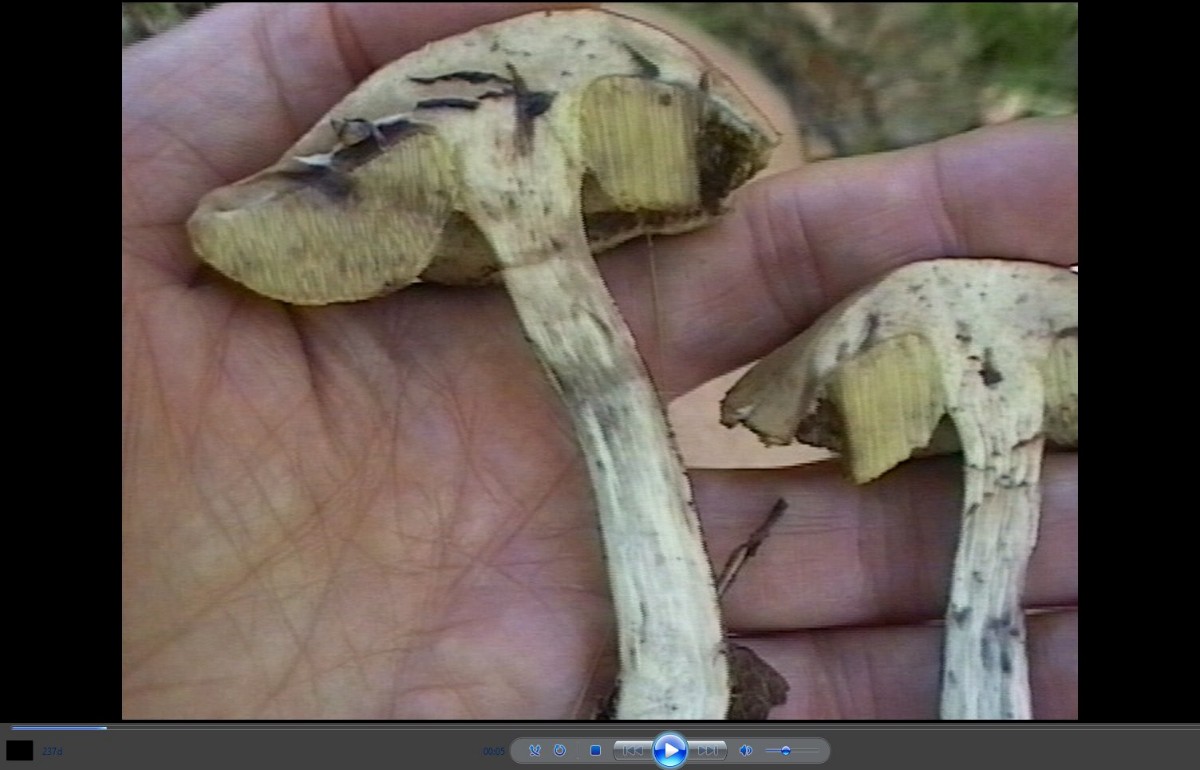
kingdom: Fungi
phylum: Basidiomycota
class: Agaricomycetes
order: Boletales
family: Boletaceae
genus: Leccinellum
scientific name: Leccinellum pseudoscabrum
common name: avnbøg-skælrørhat
